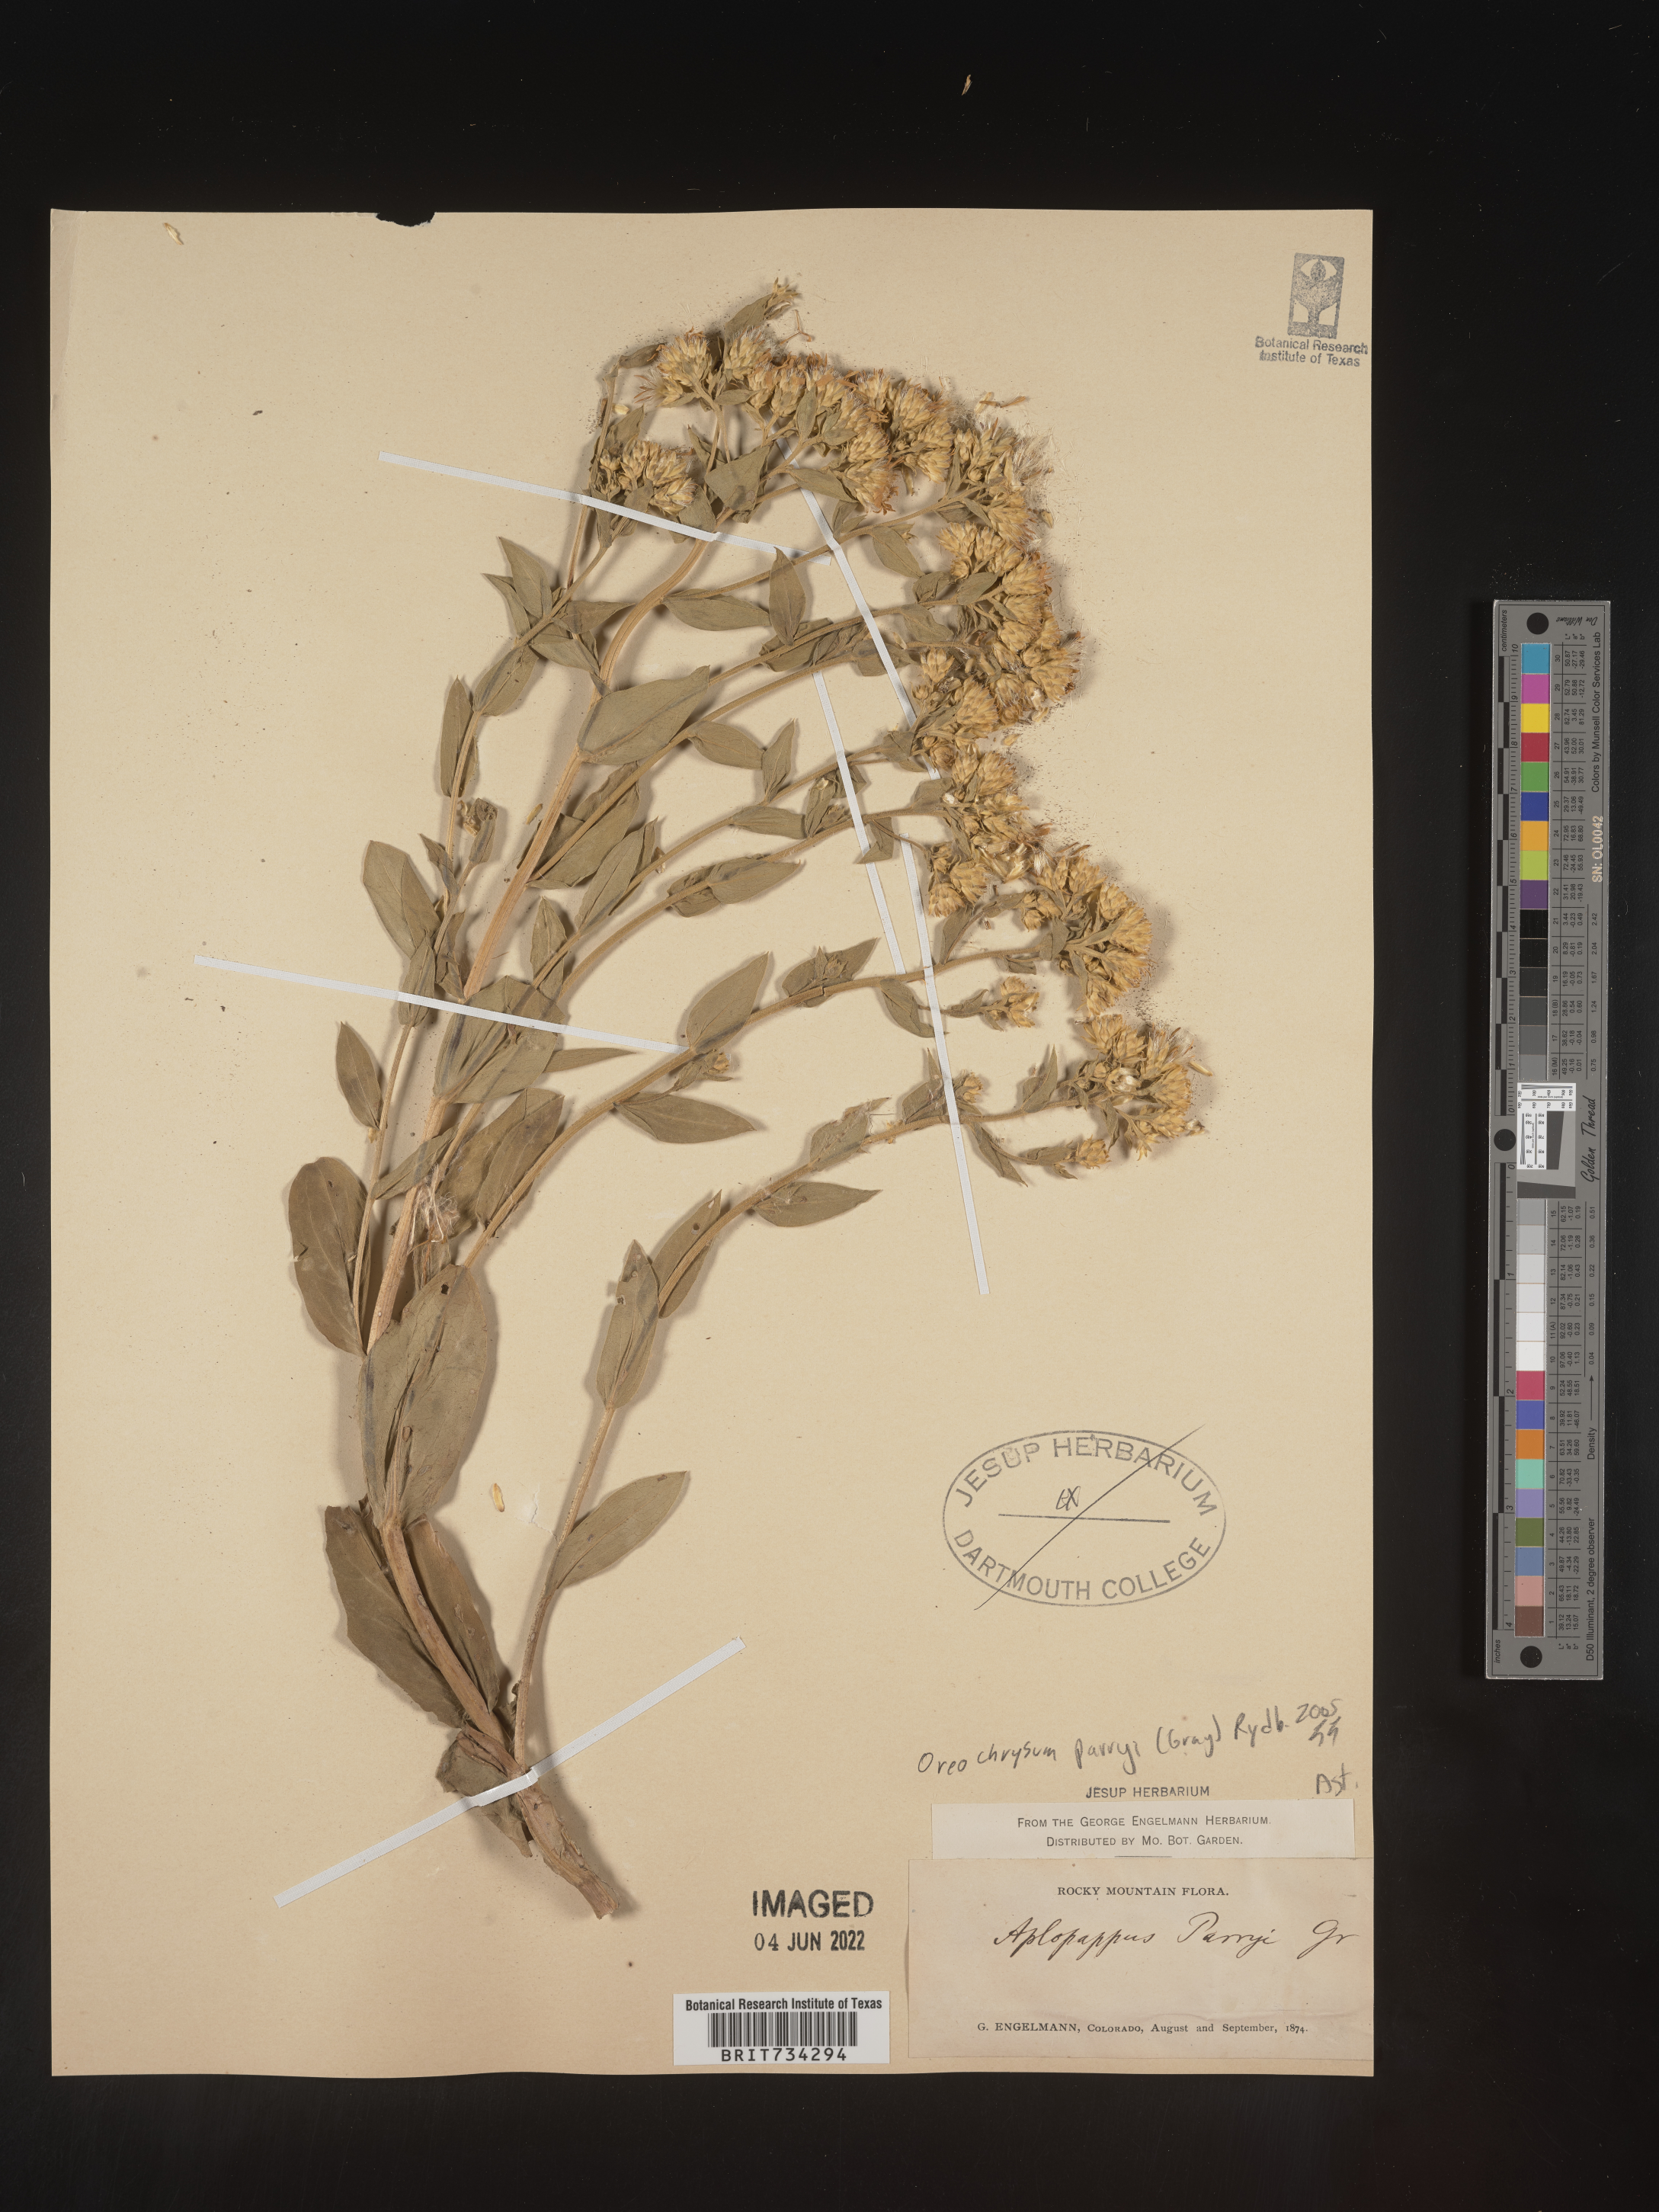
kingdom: Plantae
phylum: Tracheophyta
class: Magnoliopsida
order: Asterales
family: Asteraceae
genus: Oreochrysum
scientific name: Oreochrysum parryi
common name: Parry's goldenweed
